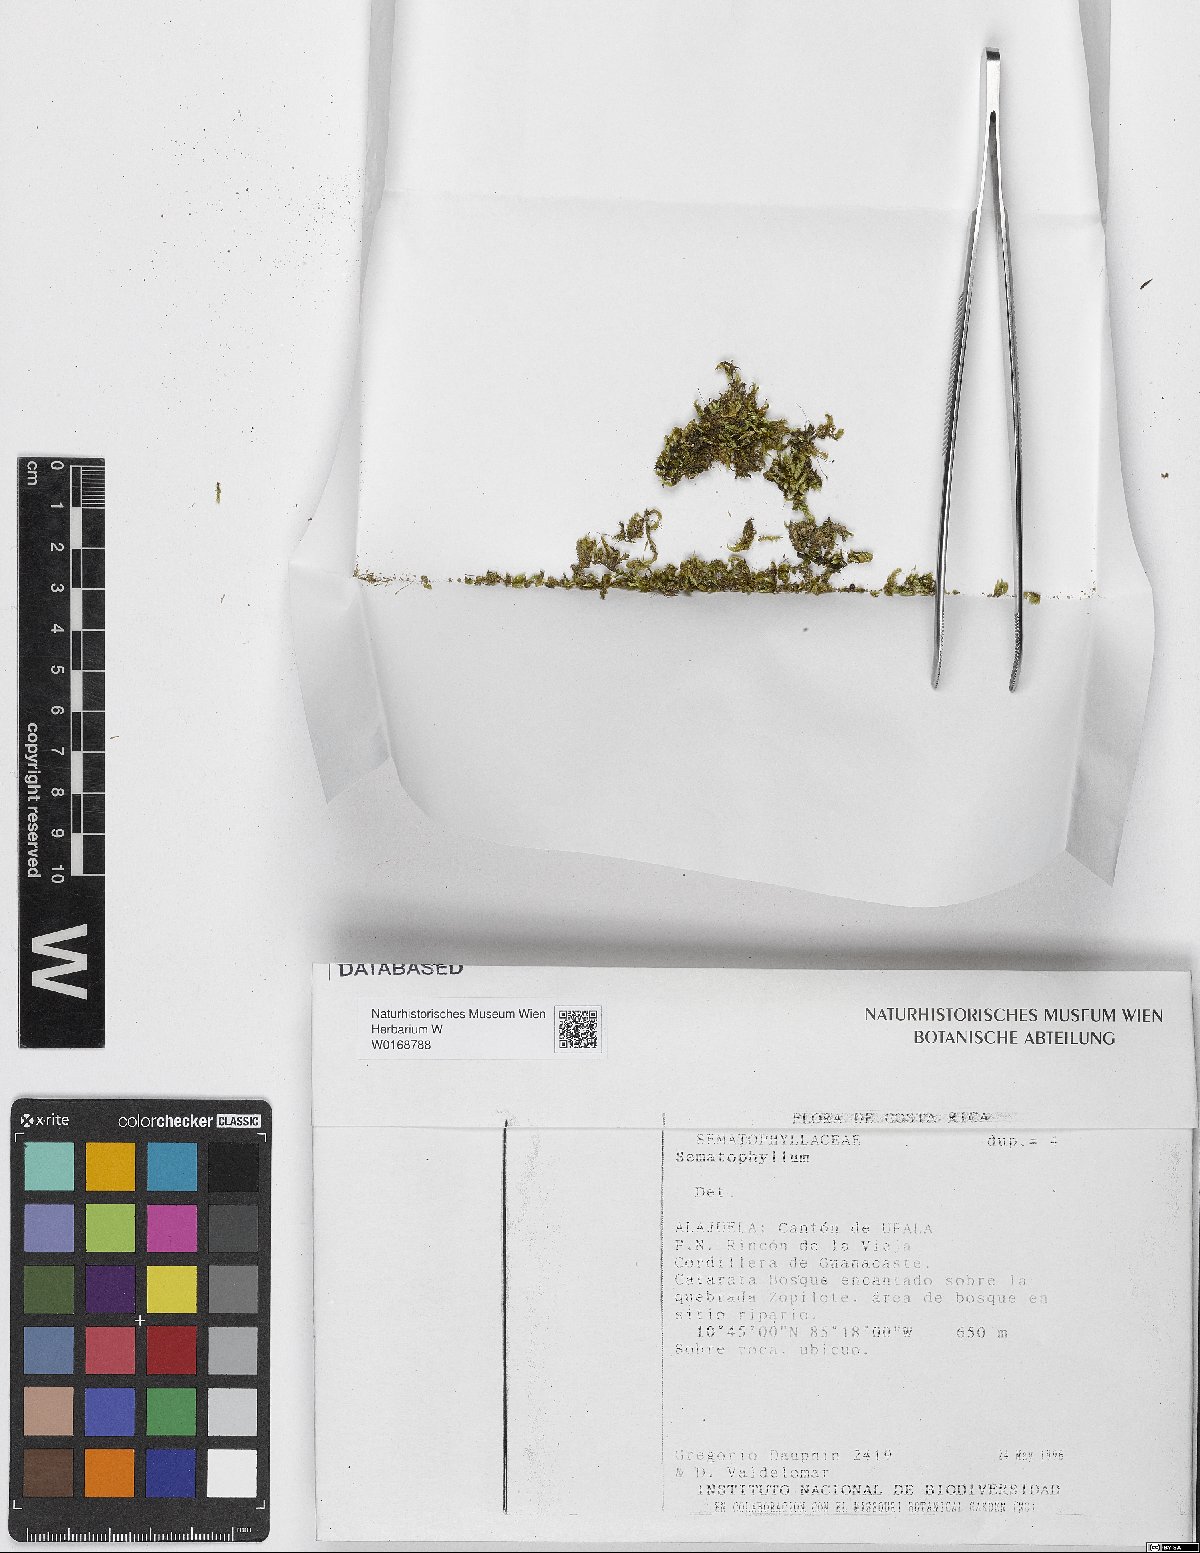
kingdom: Plantae
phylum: Bryophyta
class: Bryopsida
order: Hypnales
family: Sematophyllaceae
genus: Sematophyllum
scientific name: Sematophyllum
